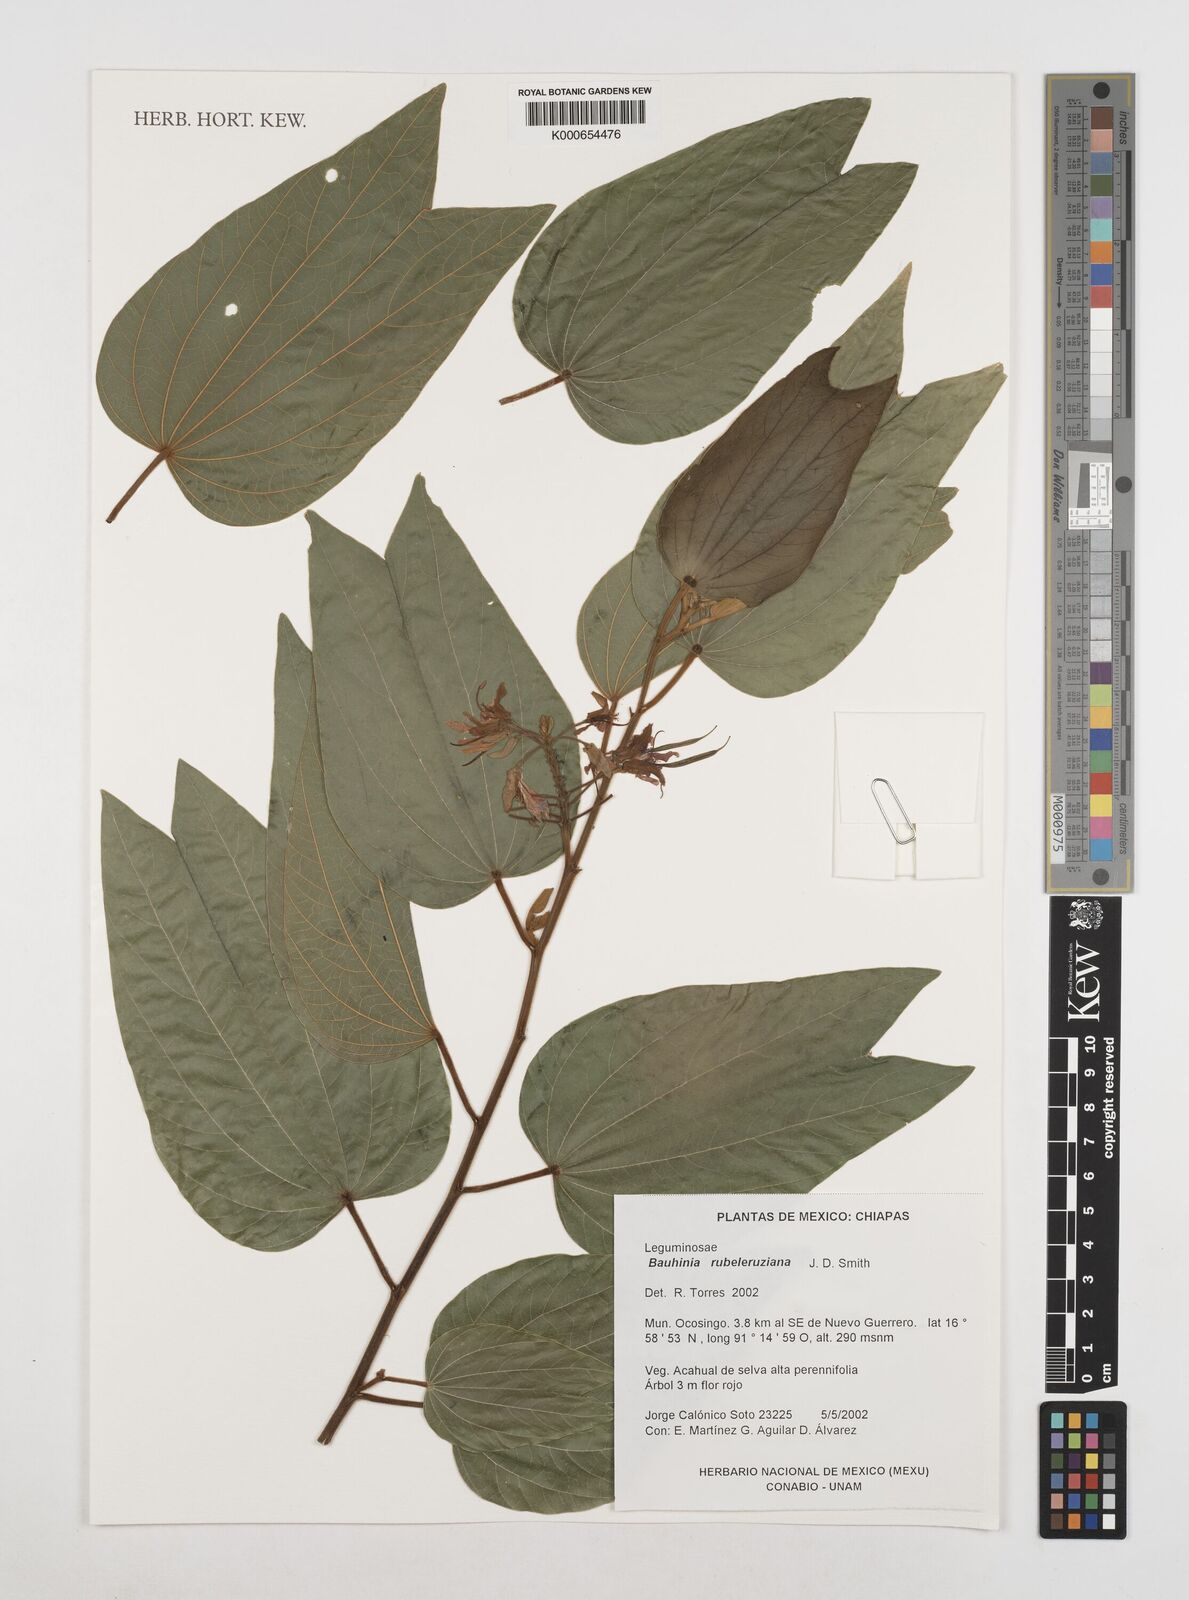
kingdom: Plantae
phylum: Tracheophyta
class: Magnoliopsida
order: Fabales
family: Fabaceae
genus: Bauhinia
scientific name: Bauhinia
